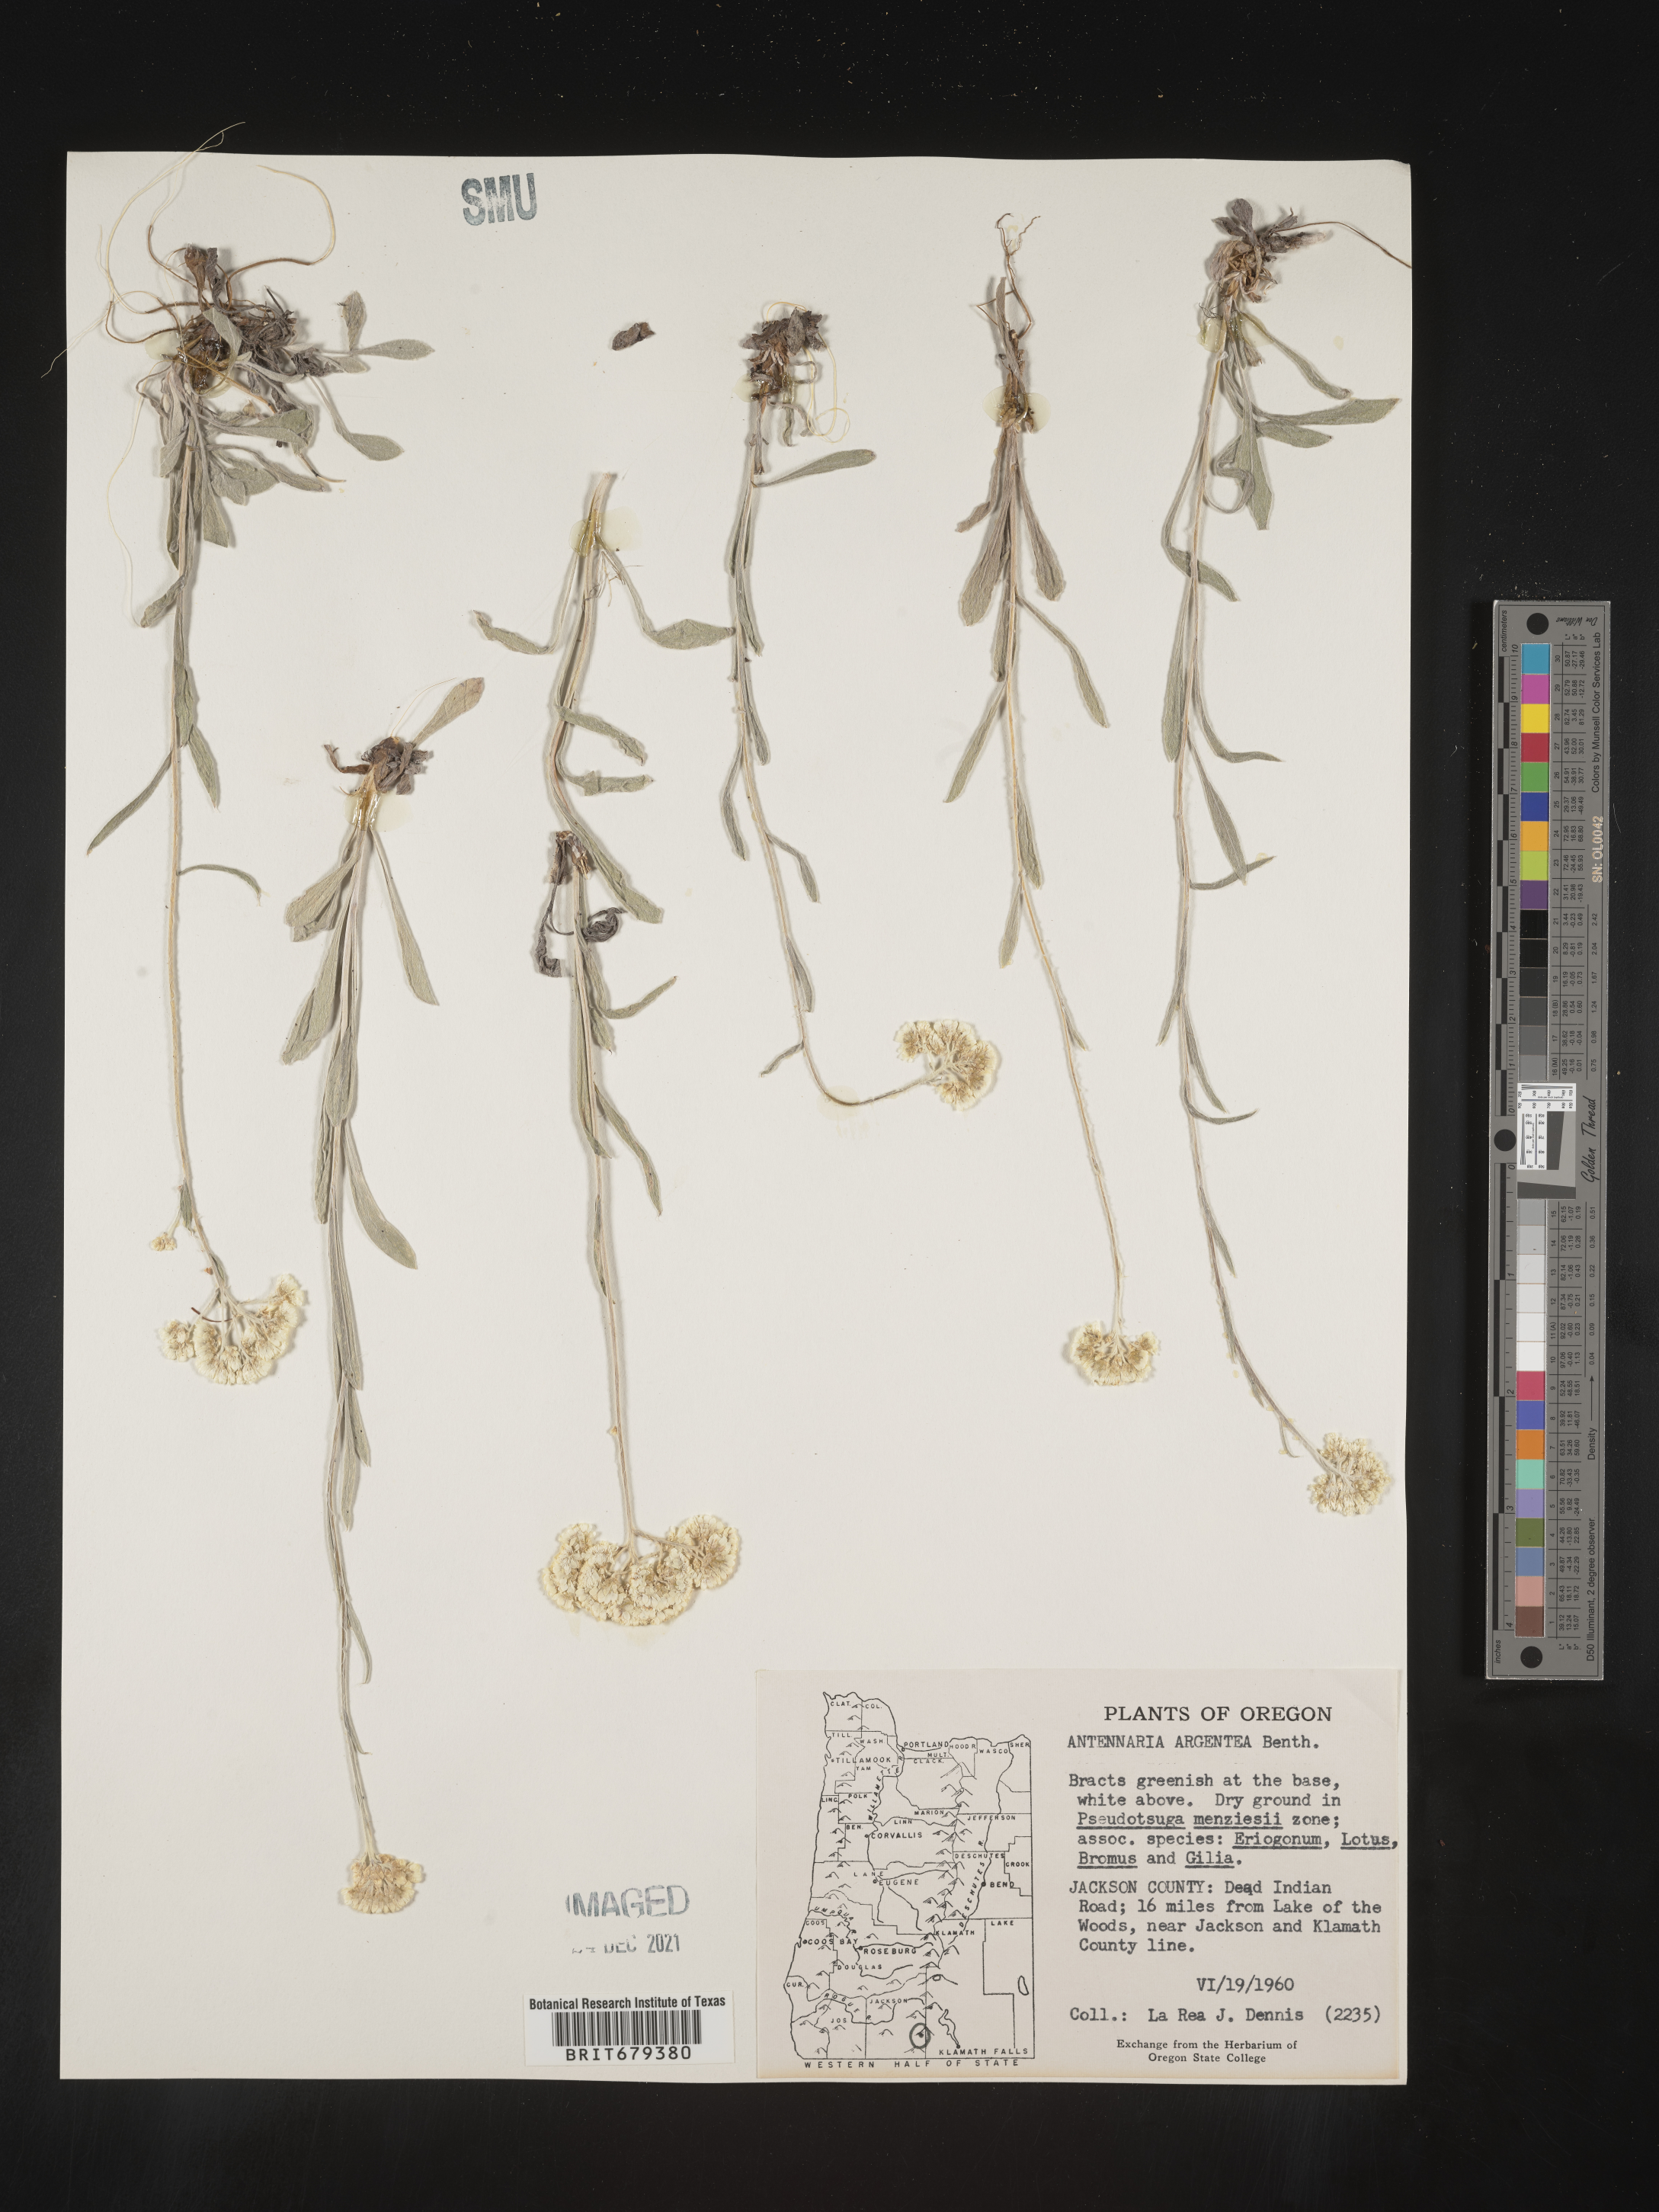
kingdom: Plantae
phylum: Tracheophyta
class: Magnoliopsida
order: Asterales
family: Asteraceae
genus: Antennaria
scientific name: Antennaria argentea
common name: Silver pussytoes
